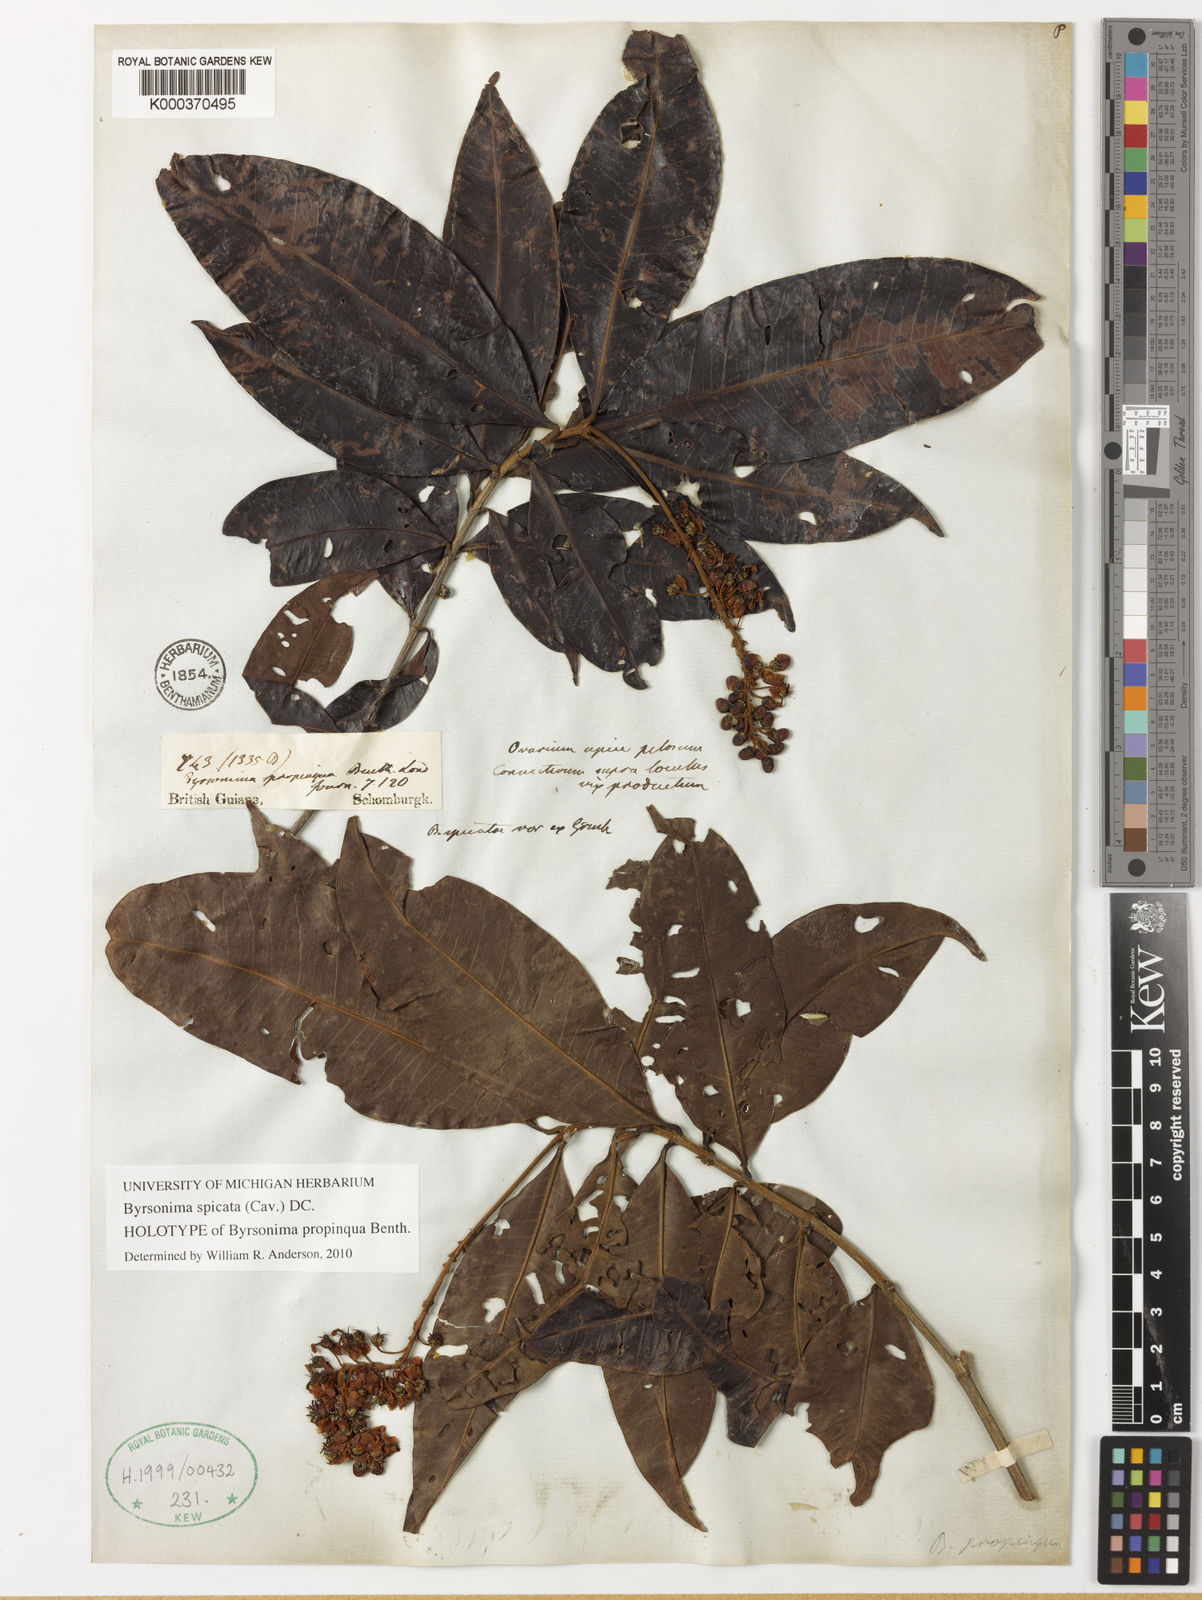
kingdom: Plantae
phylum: Tracheophyta
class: Magnoliopsida
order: Malpighiales
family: Malpighiaceae
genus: Byrsonima
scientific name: Byrsonima
